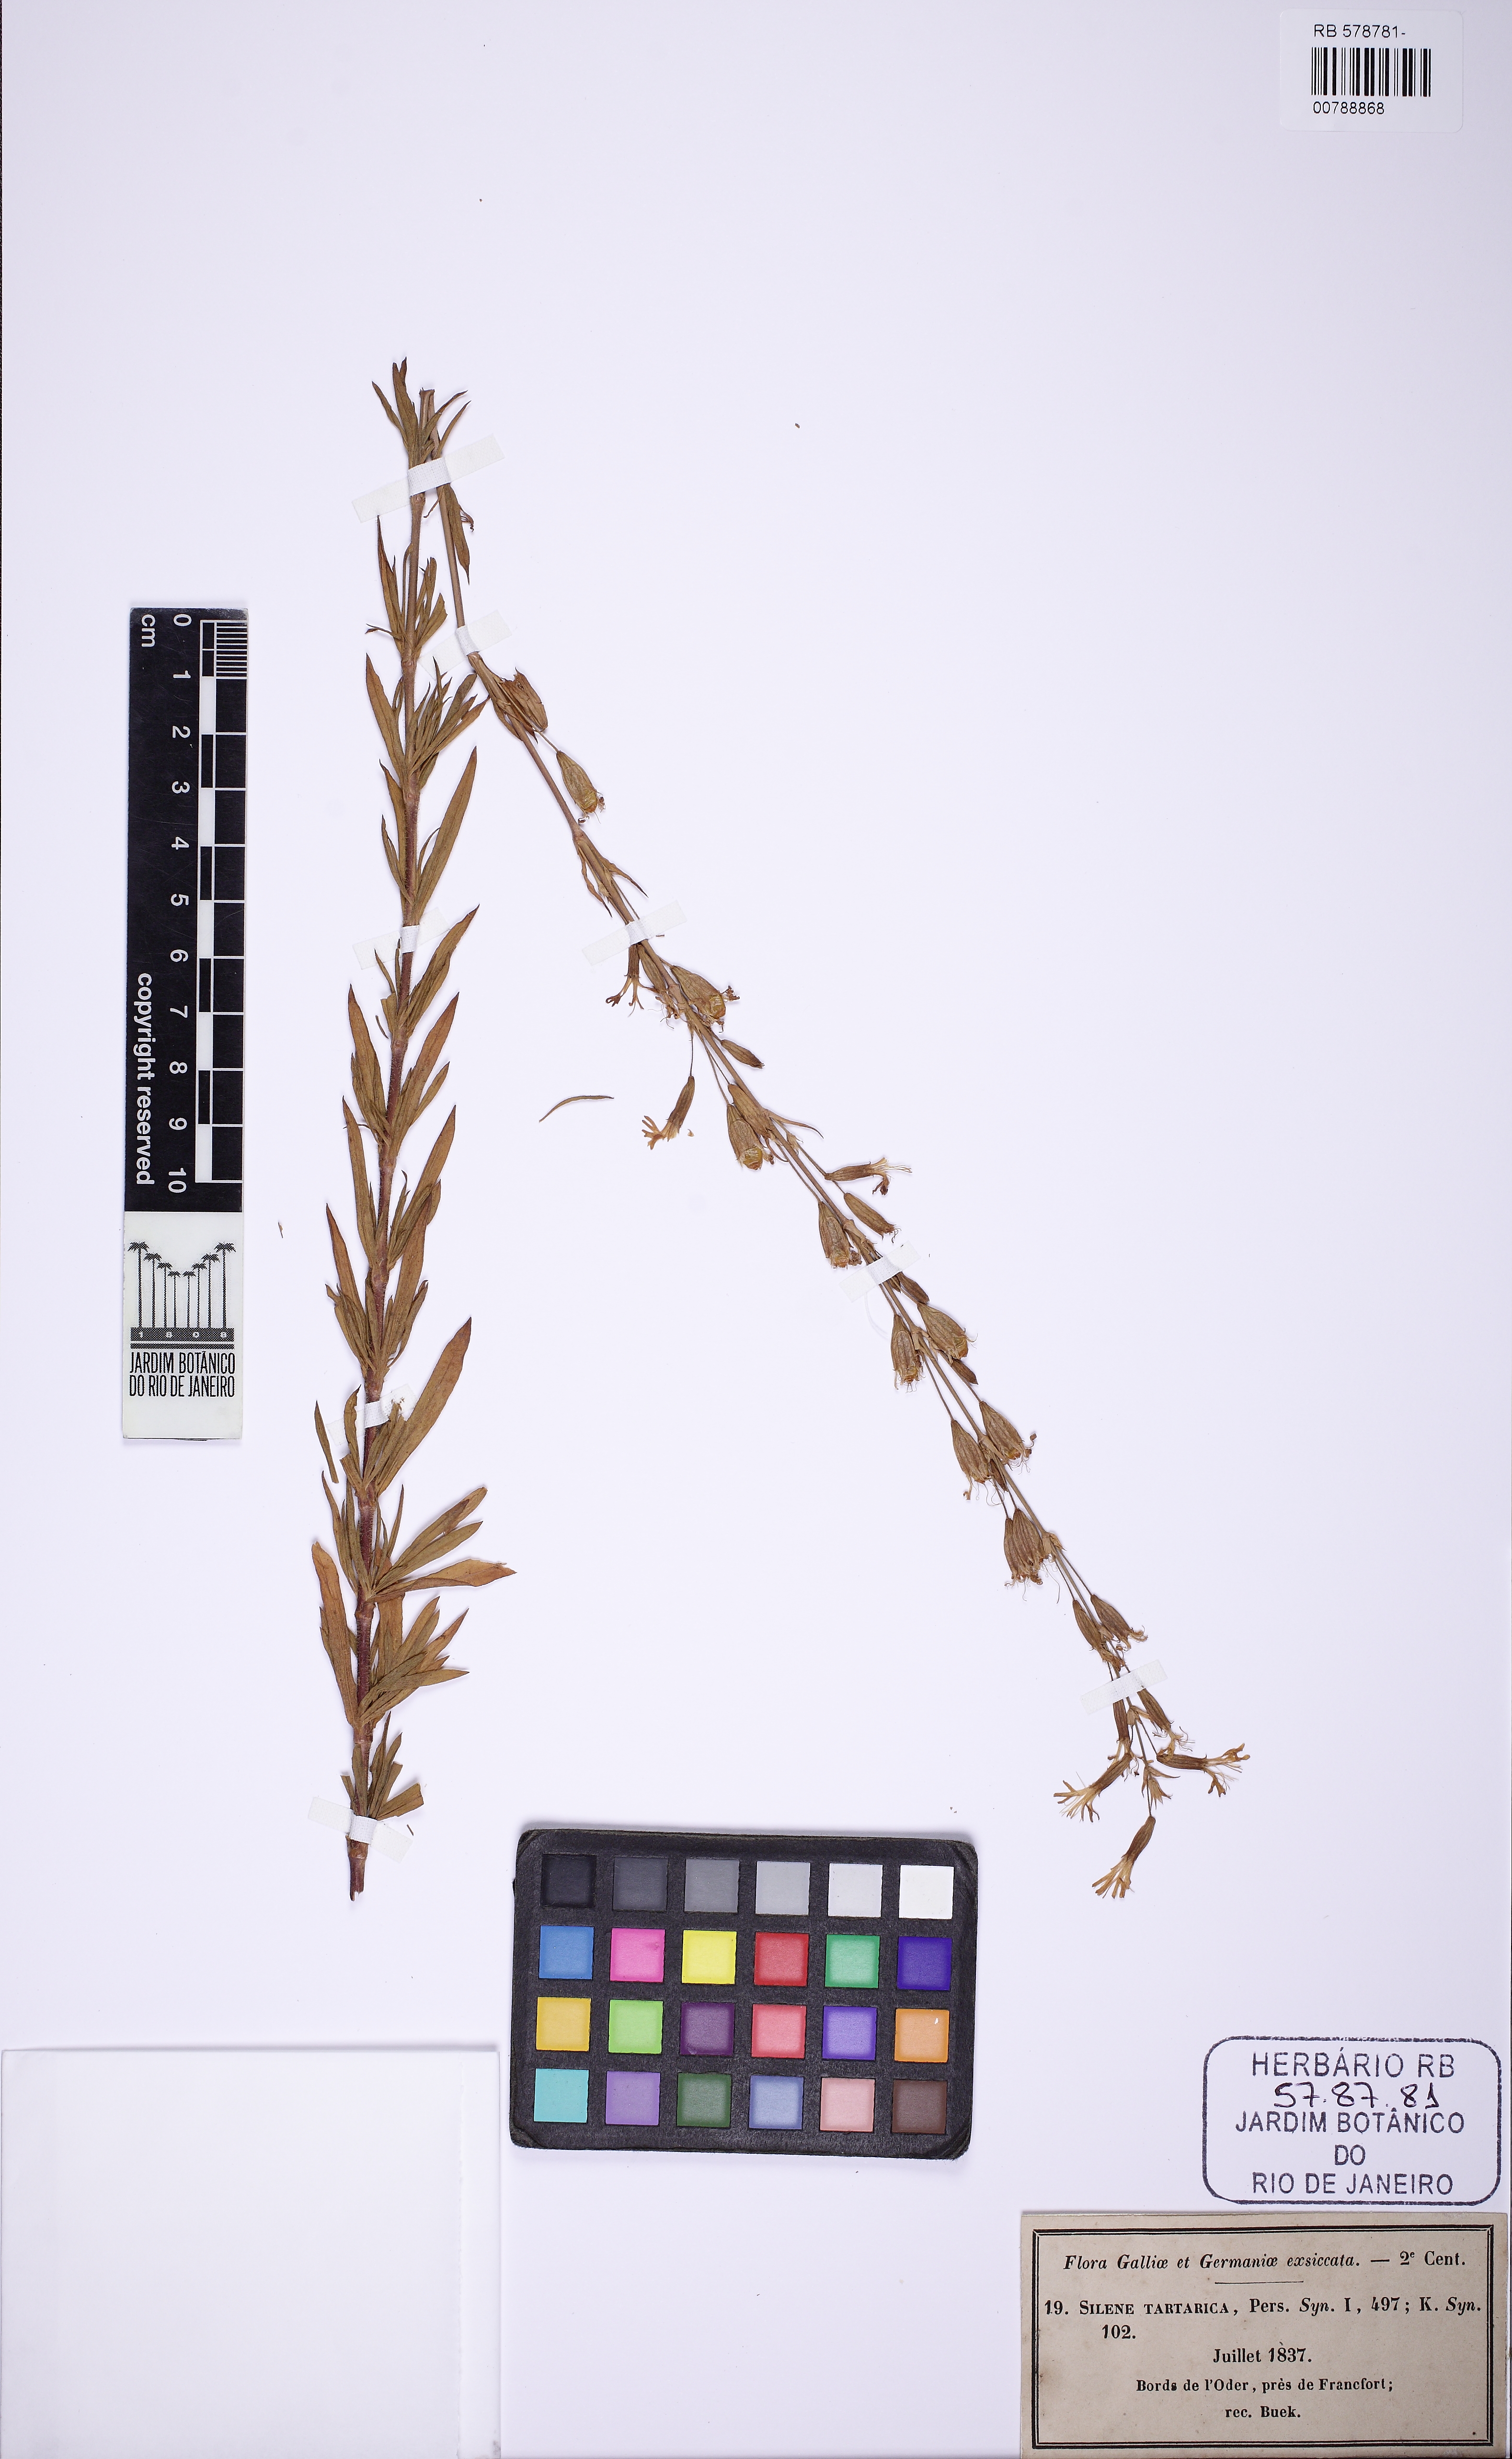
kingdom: Plantae
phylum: Tracheophyta
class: Magnoliopsida
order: Caryophyllales
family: Caryophyllaceae
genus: Silene
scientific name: Silene tatarica
